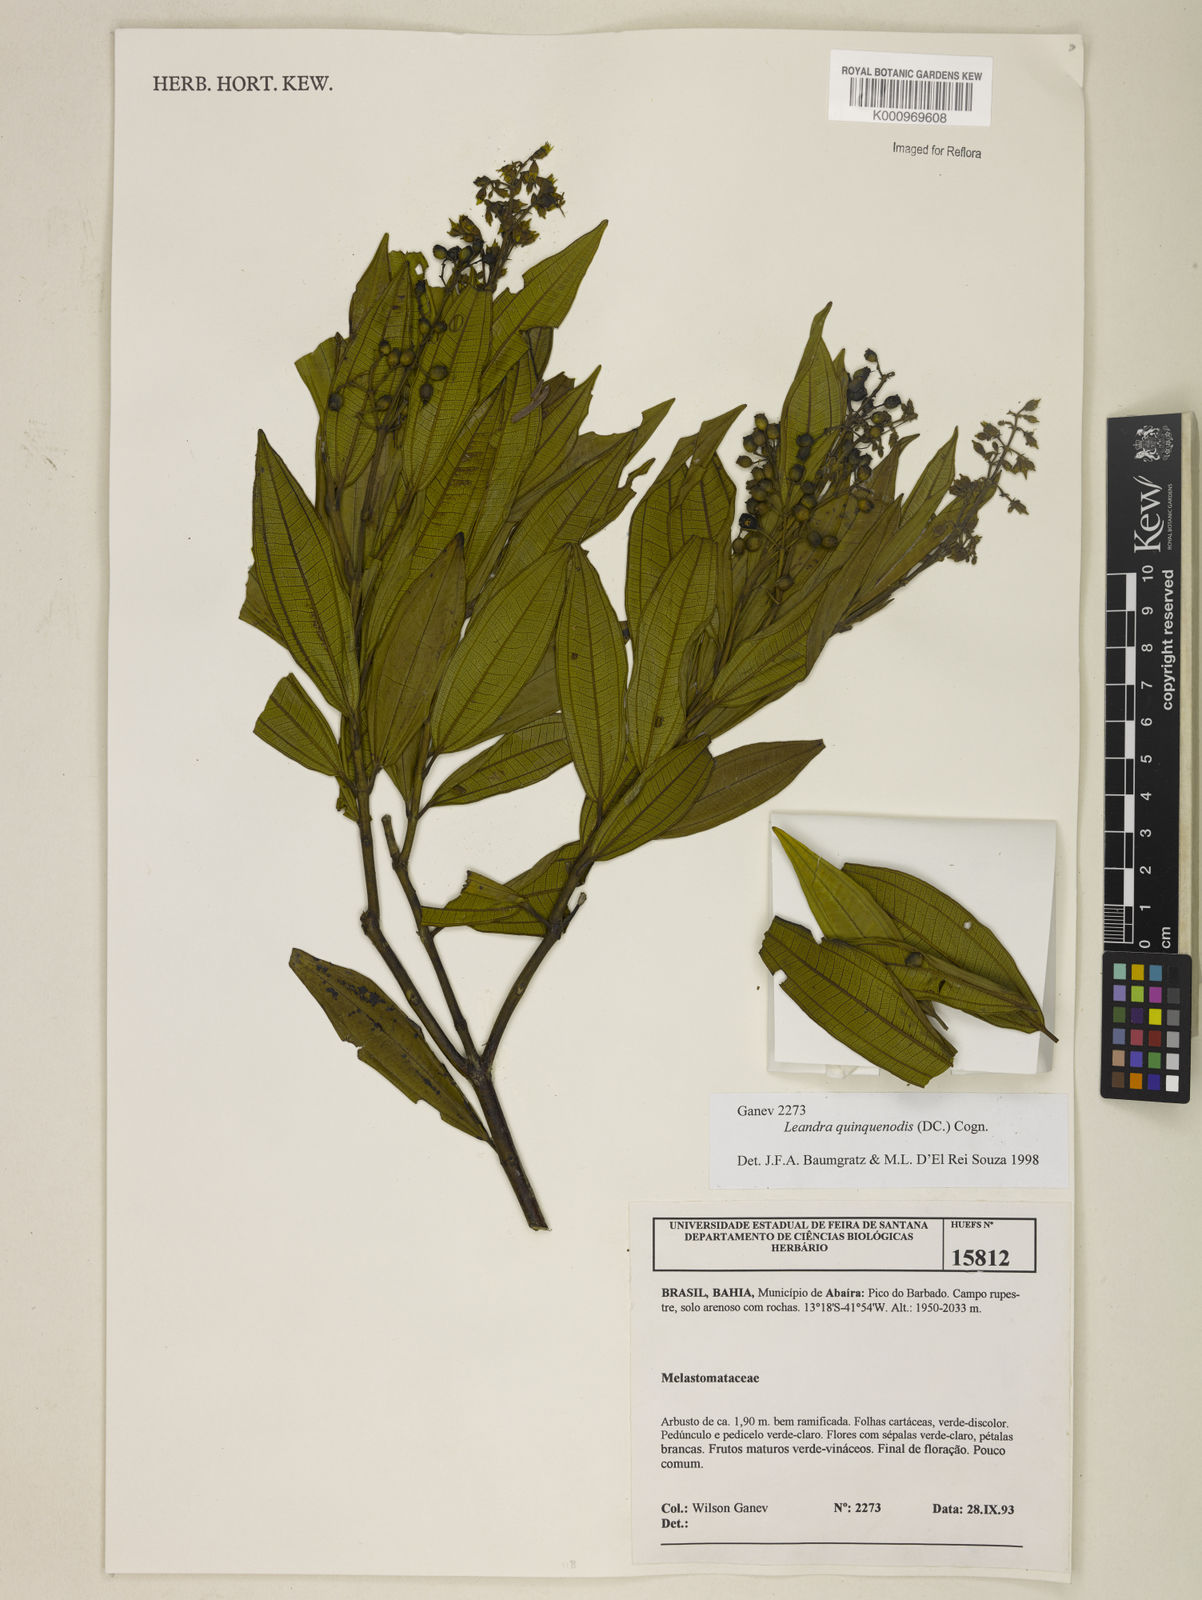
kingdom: Plantae
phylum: Tracheophyta
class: Magnoliopsida
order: Myrtales
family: Melastomataceae
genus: Miconia
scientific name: Miconia quinquenodis
